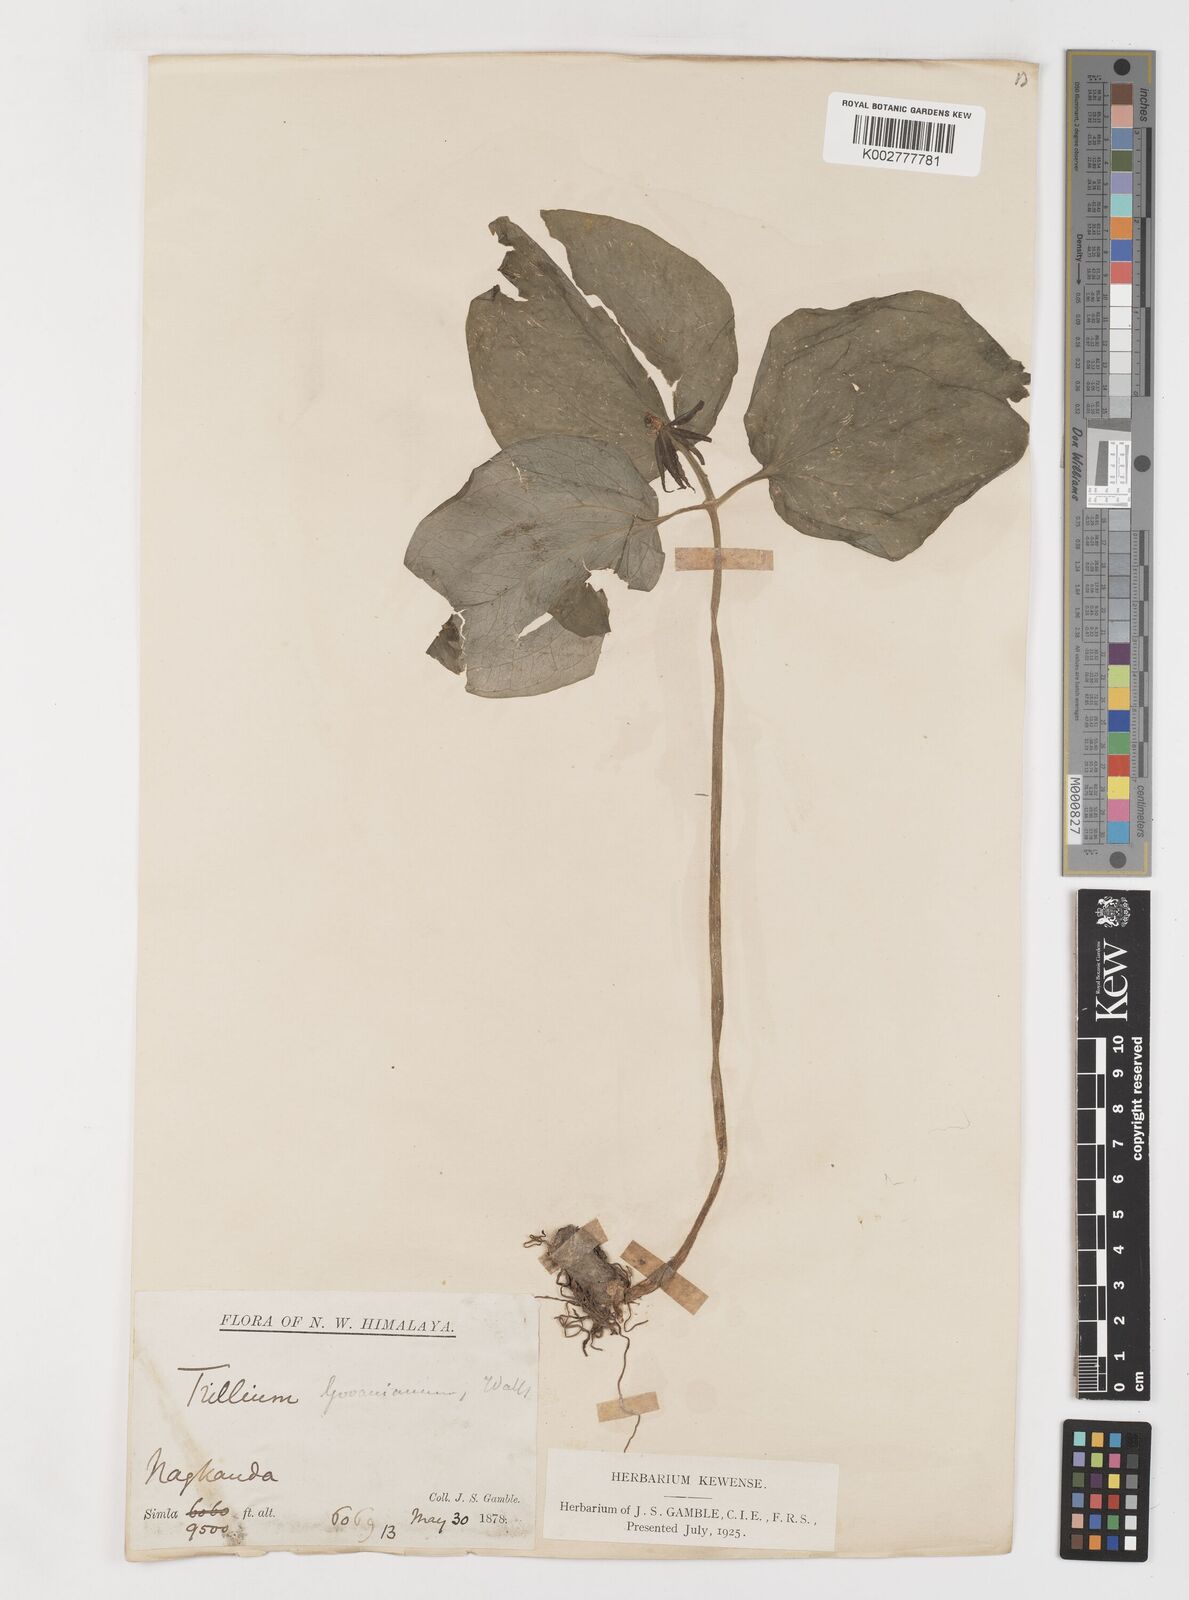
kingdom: Plantae
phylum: Tracheophyta
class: Liliopsida
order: Liliales
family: Melanthiaceae
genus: Trillium
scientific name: Trillium govanianum
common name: Himalayan trillium
